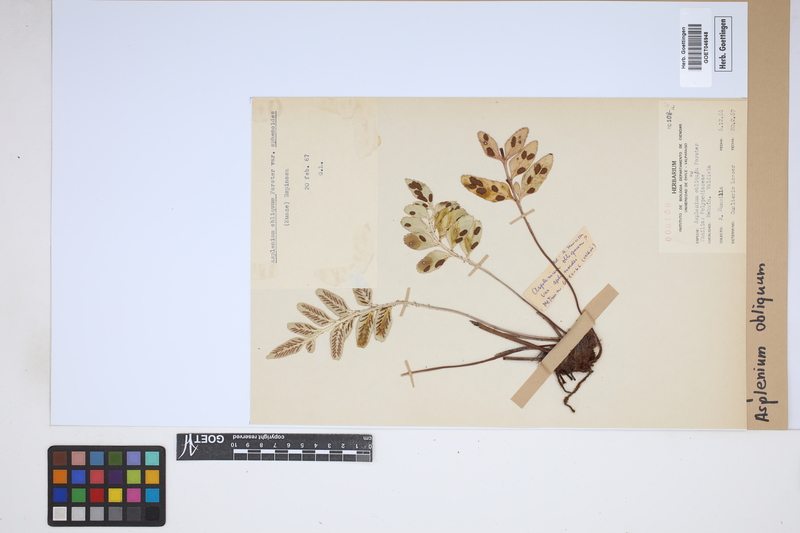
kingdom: Plantae
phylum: Tracheophyta
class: Polypodiopsida
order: Polypodiales
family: Aspleniaceae
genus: Asplenium
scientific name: Asplenium obliquum
